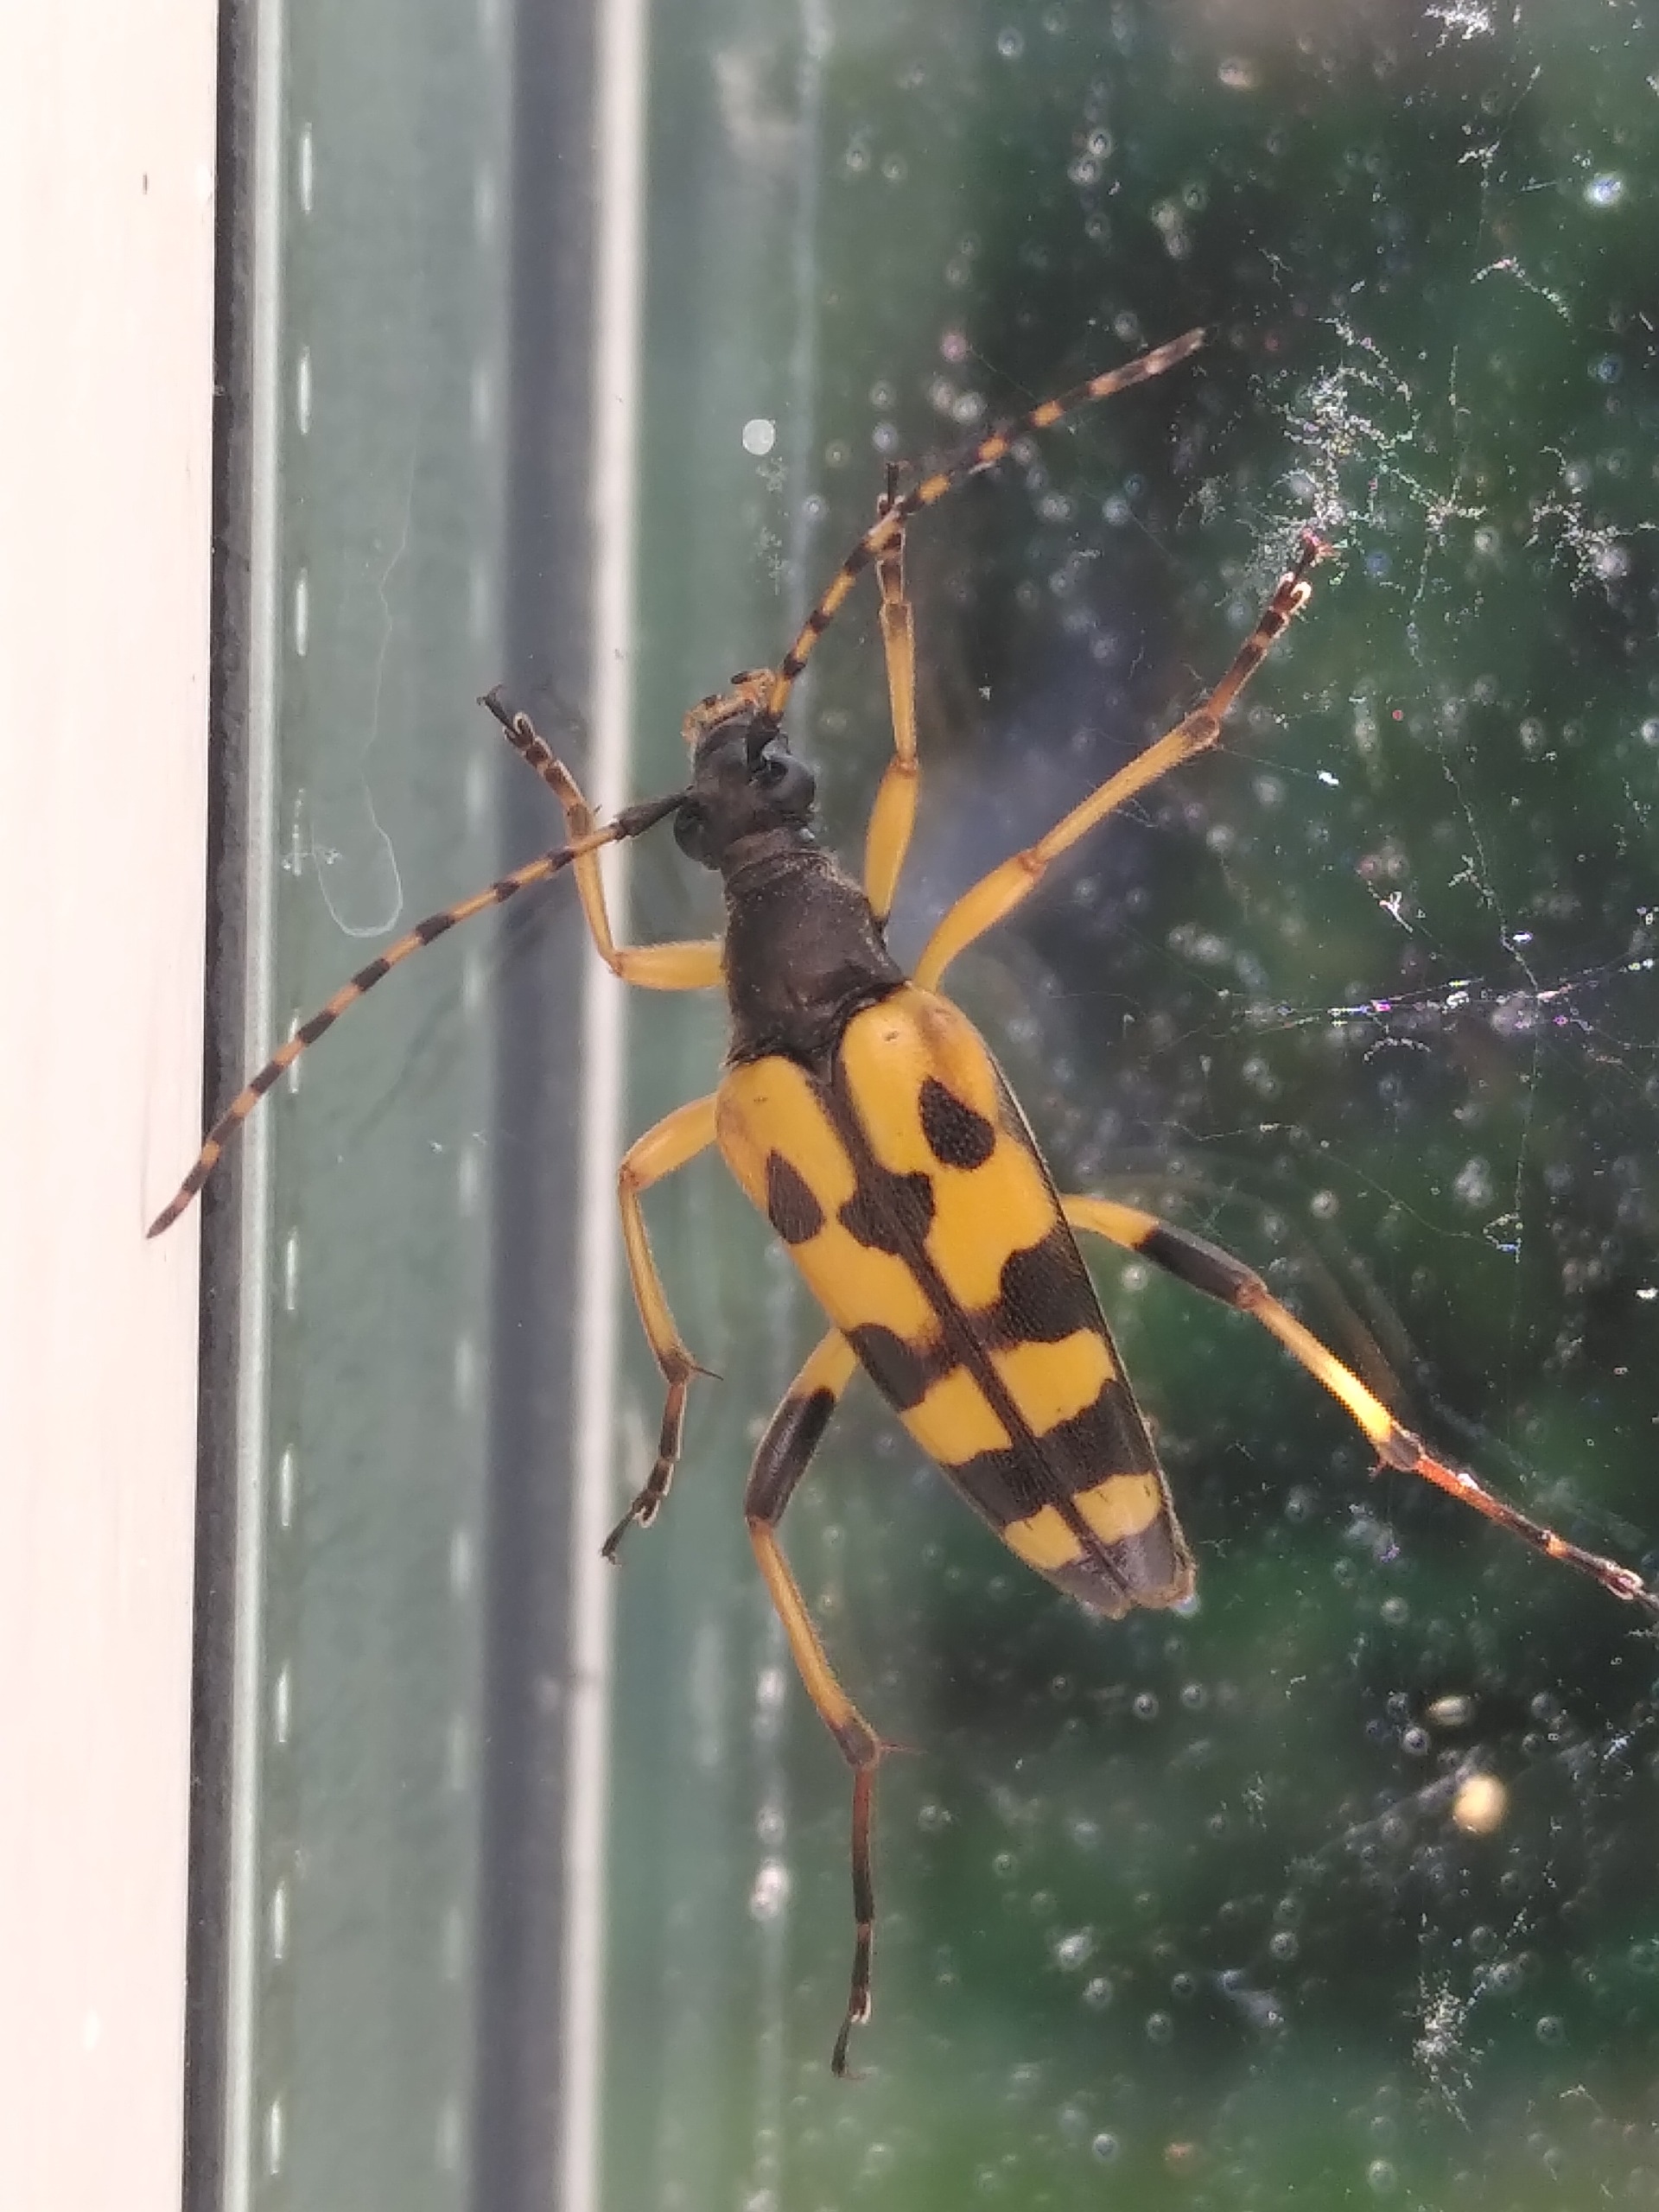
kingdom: Animalia
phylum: Arthropoda
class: Insecta
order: Coleoptera
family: Cerambycidae
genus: Rutpela
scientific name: Rutpela maculata
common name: Sydlig blomsterbuk
